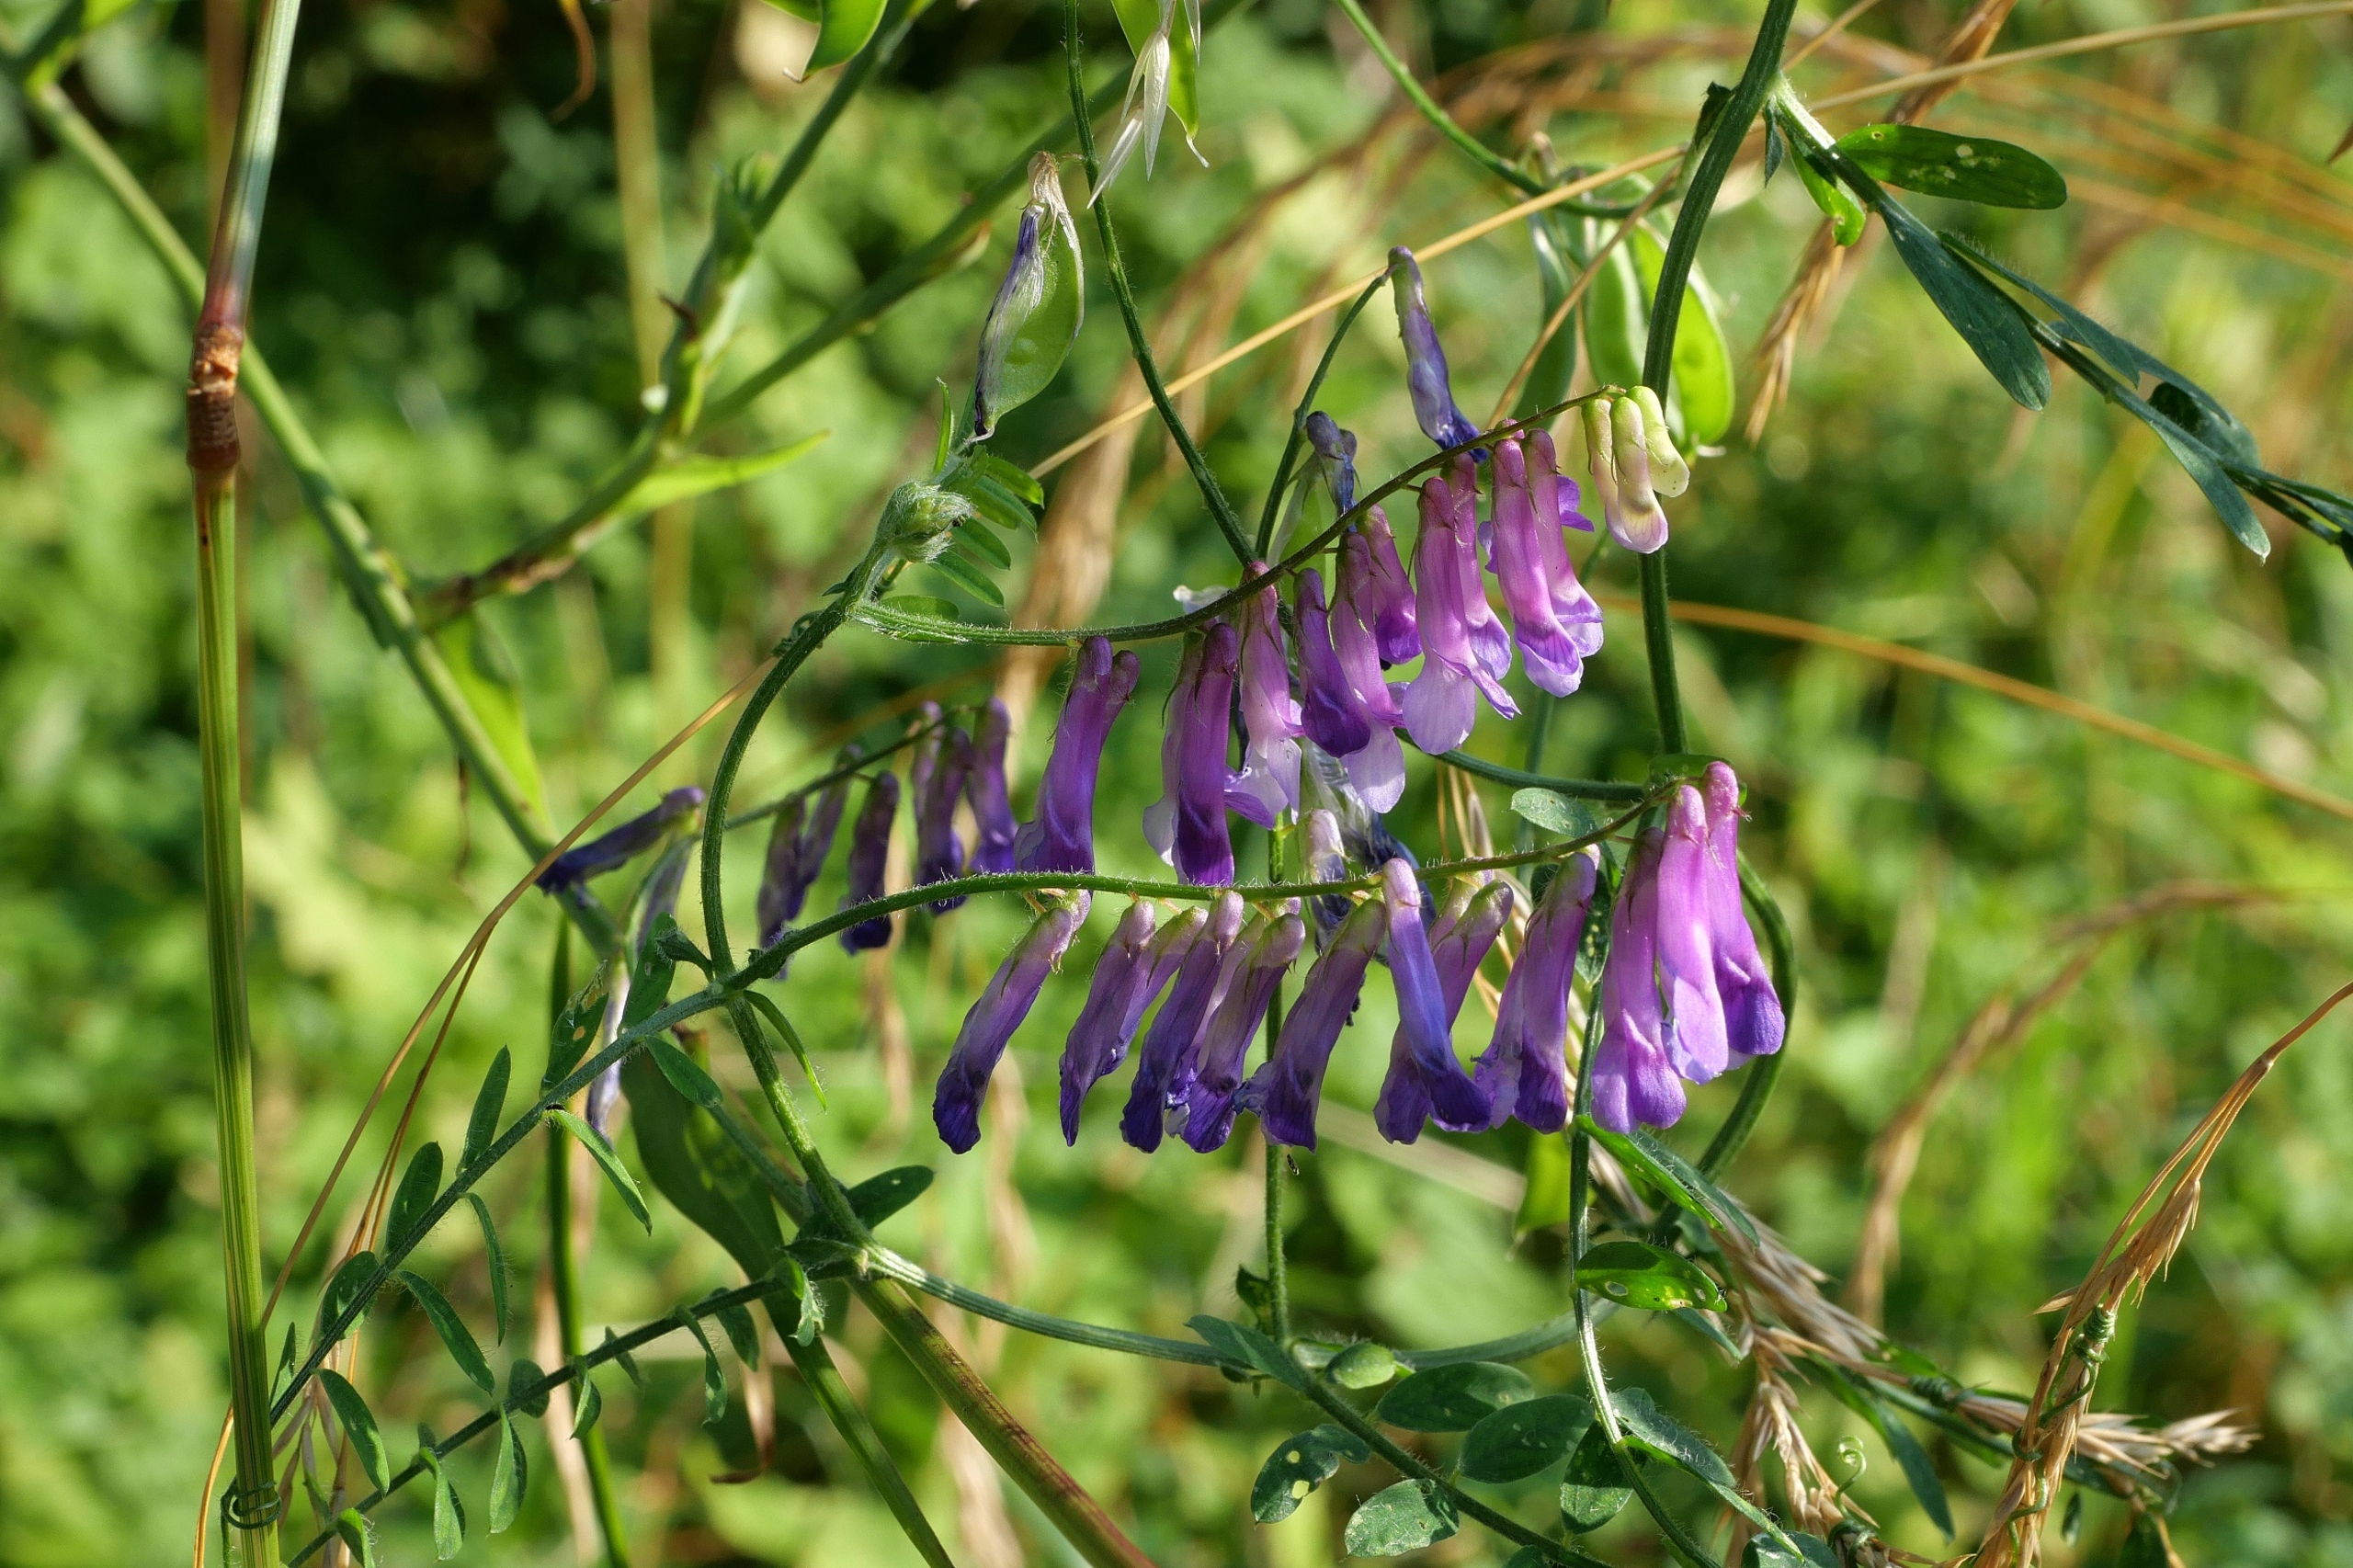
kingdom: Plantae
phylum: Tracheophyta
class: Magnoliopsida
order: Fabales
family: Fabaceae
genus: Vicia
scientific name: Vicia villosa
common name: Sand-vikke
